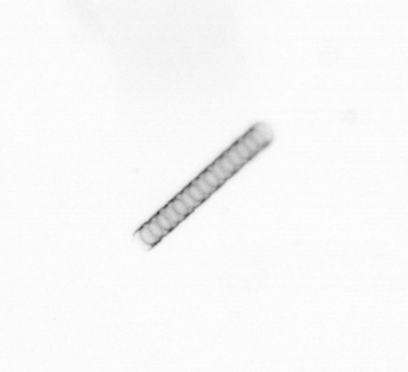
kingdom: Chromista
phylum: Ochrophyta
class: Bacillariophyceae
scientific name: Bacillariophyceae
